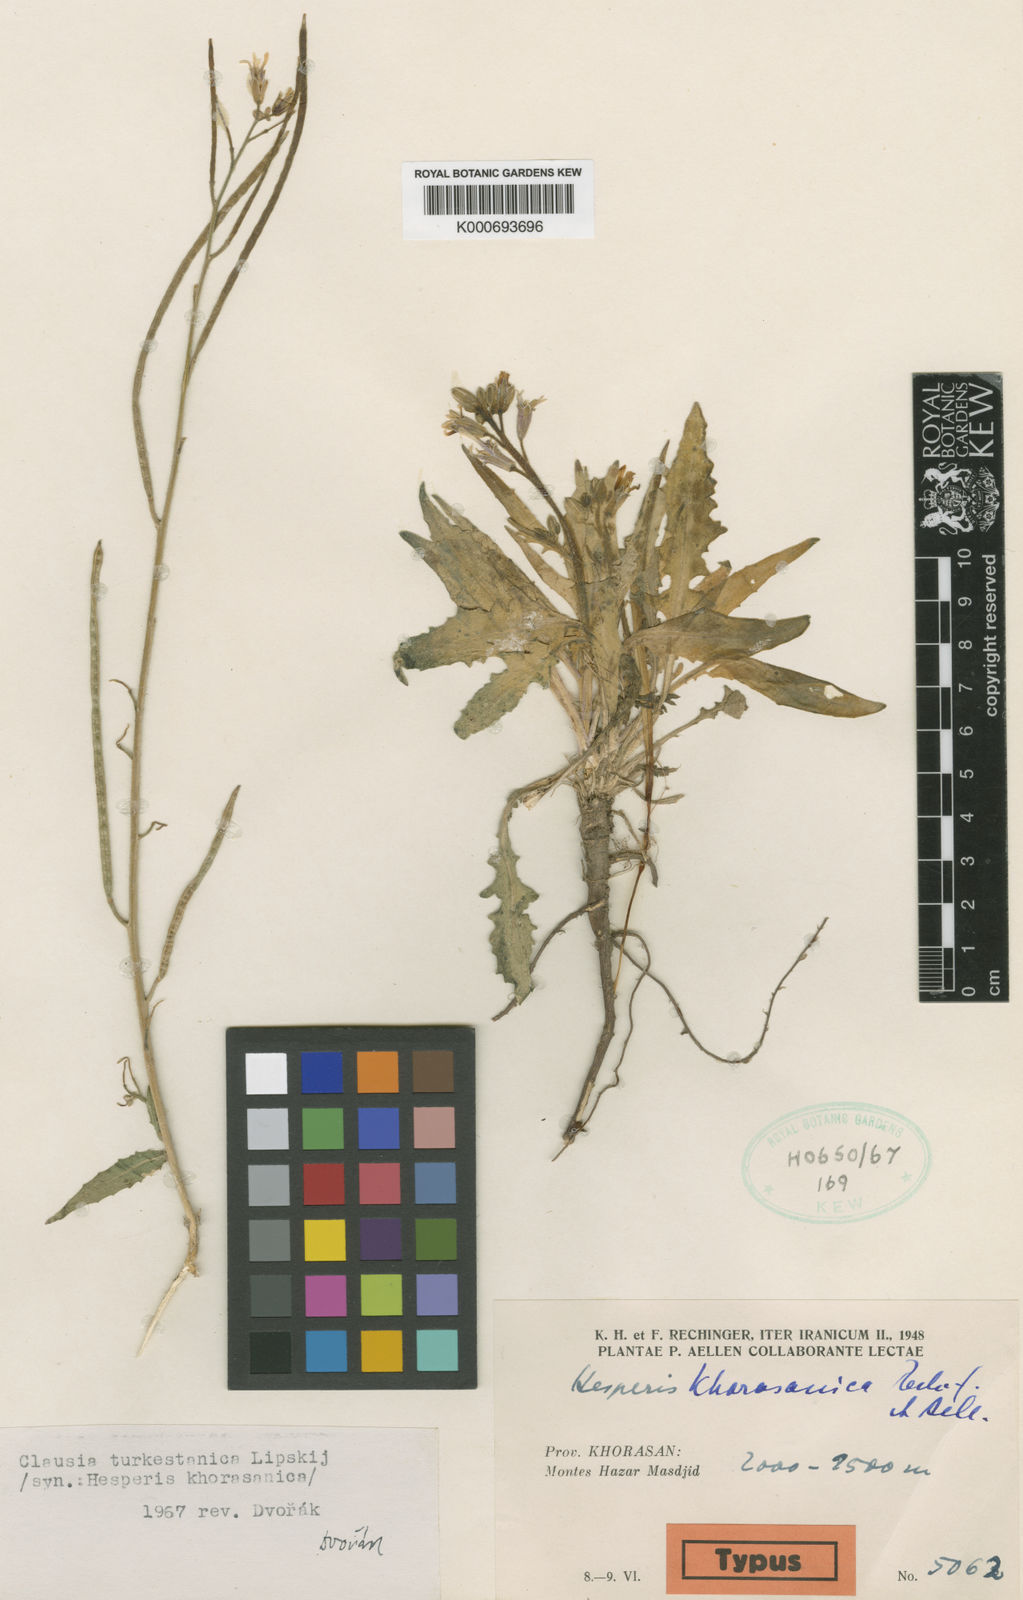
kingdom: Plantae
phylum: Tracheophyta
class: Magnoliopsida
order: Brassicales
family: Brassicaceae
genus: Parrya
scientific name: Parrya khorasanica
